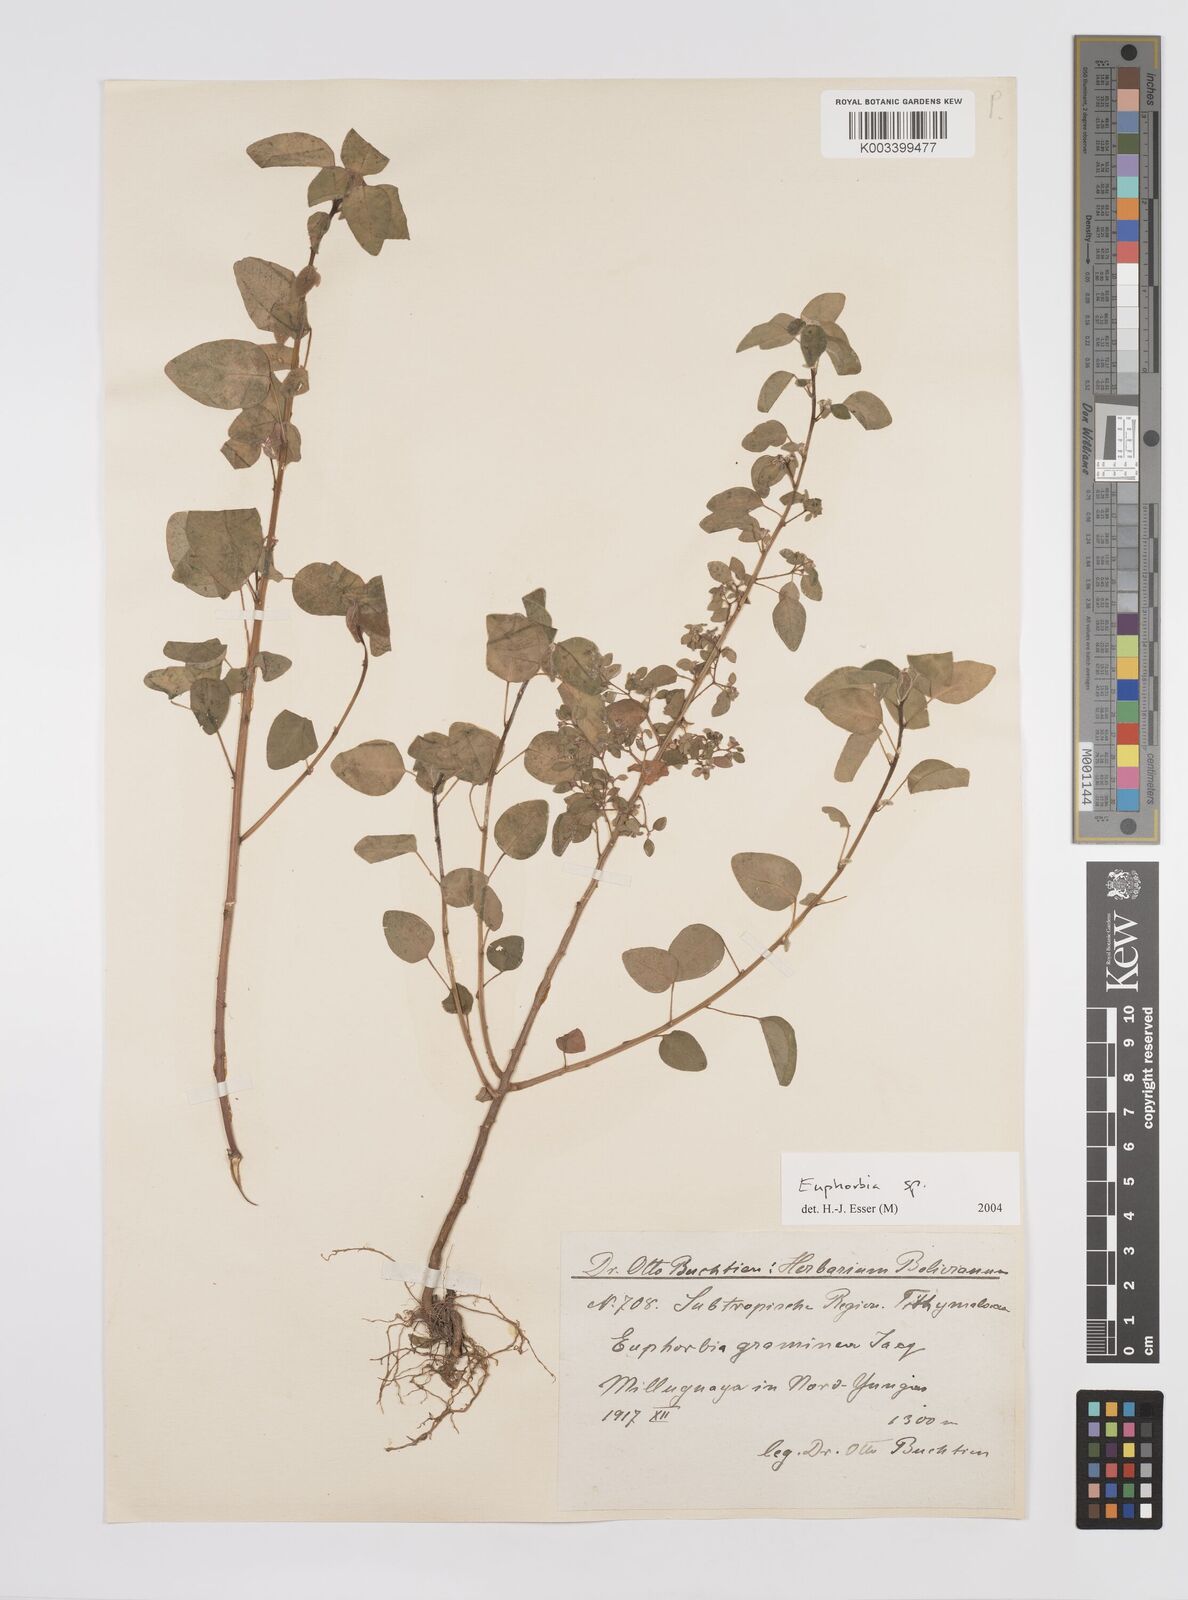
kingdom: Plantae
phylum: Tracheophyta
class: Magnoliopsida
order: Malpighiales
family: Euphorbiaceae
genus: Euphorbia
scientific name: Euphorbia
